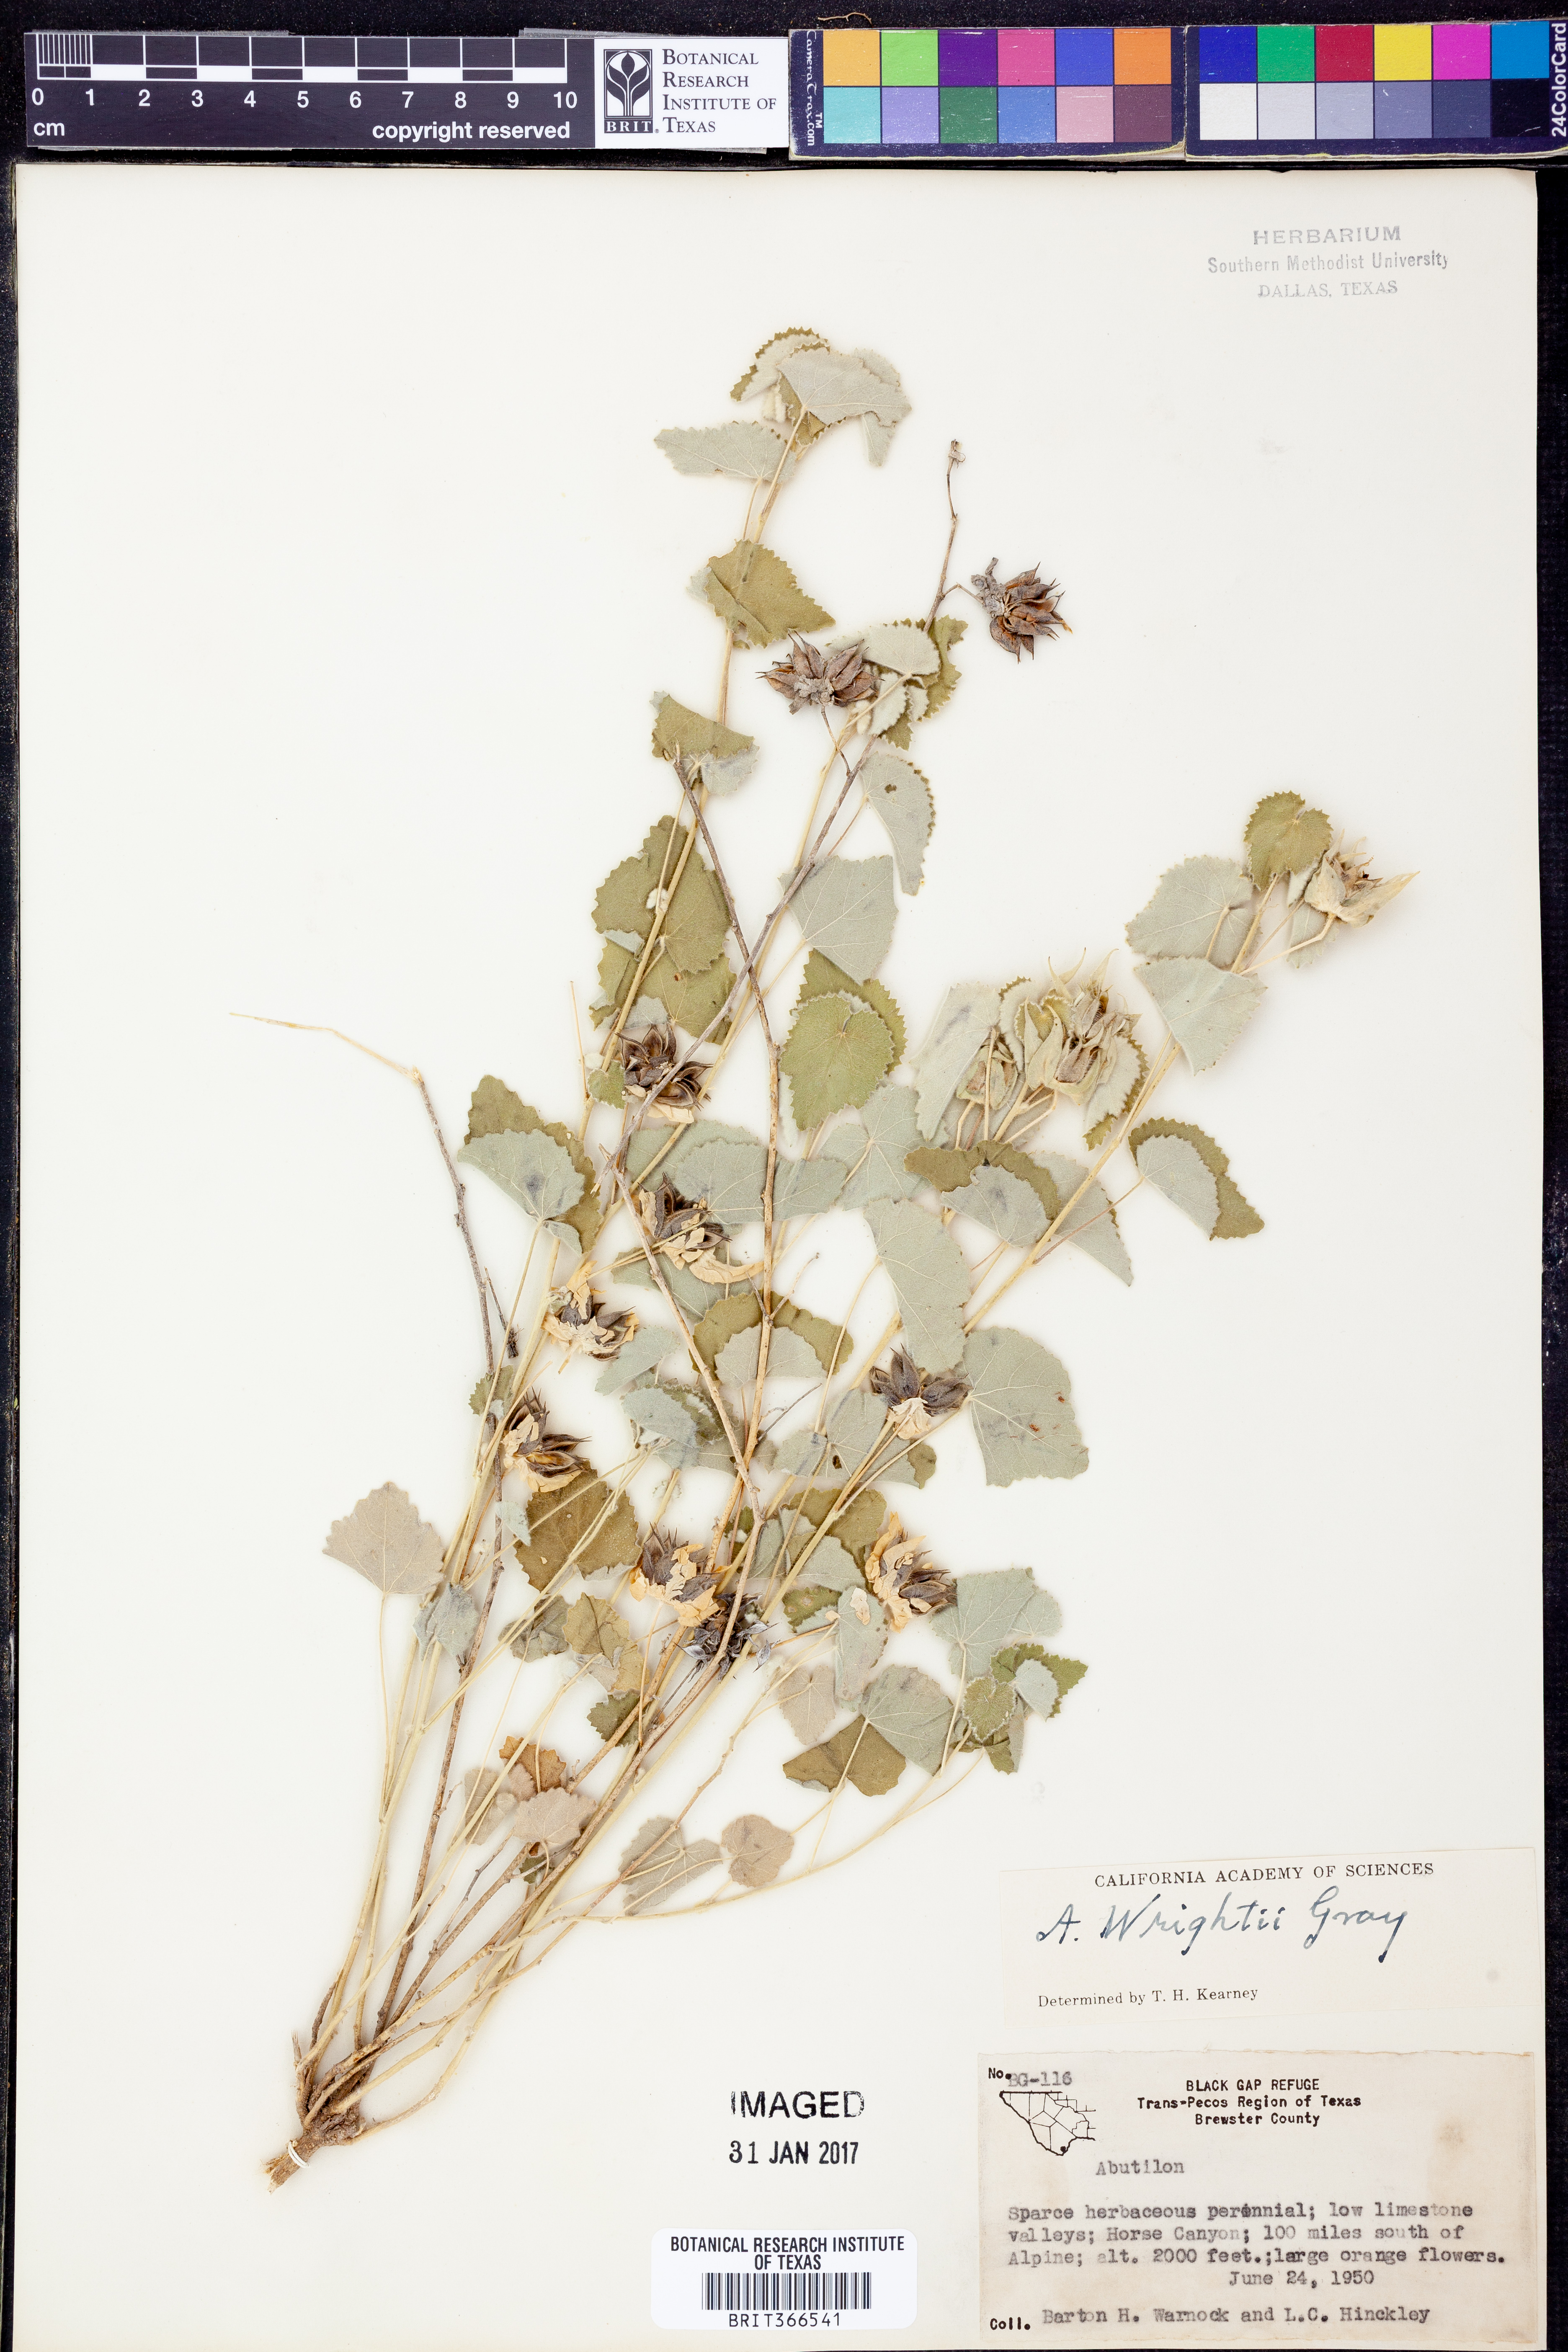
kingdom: Plantae
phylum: Tracheophyta
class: Magnoliopsida
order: Malvales
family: Malvaceae
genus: Abutilon
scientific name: Abutilon wrightii
